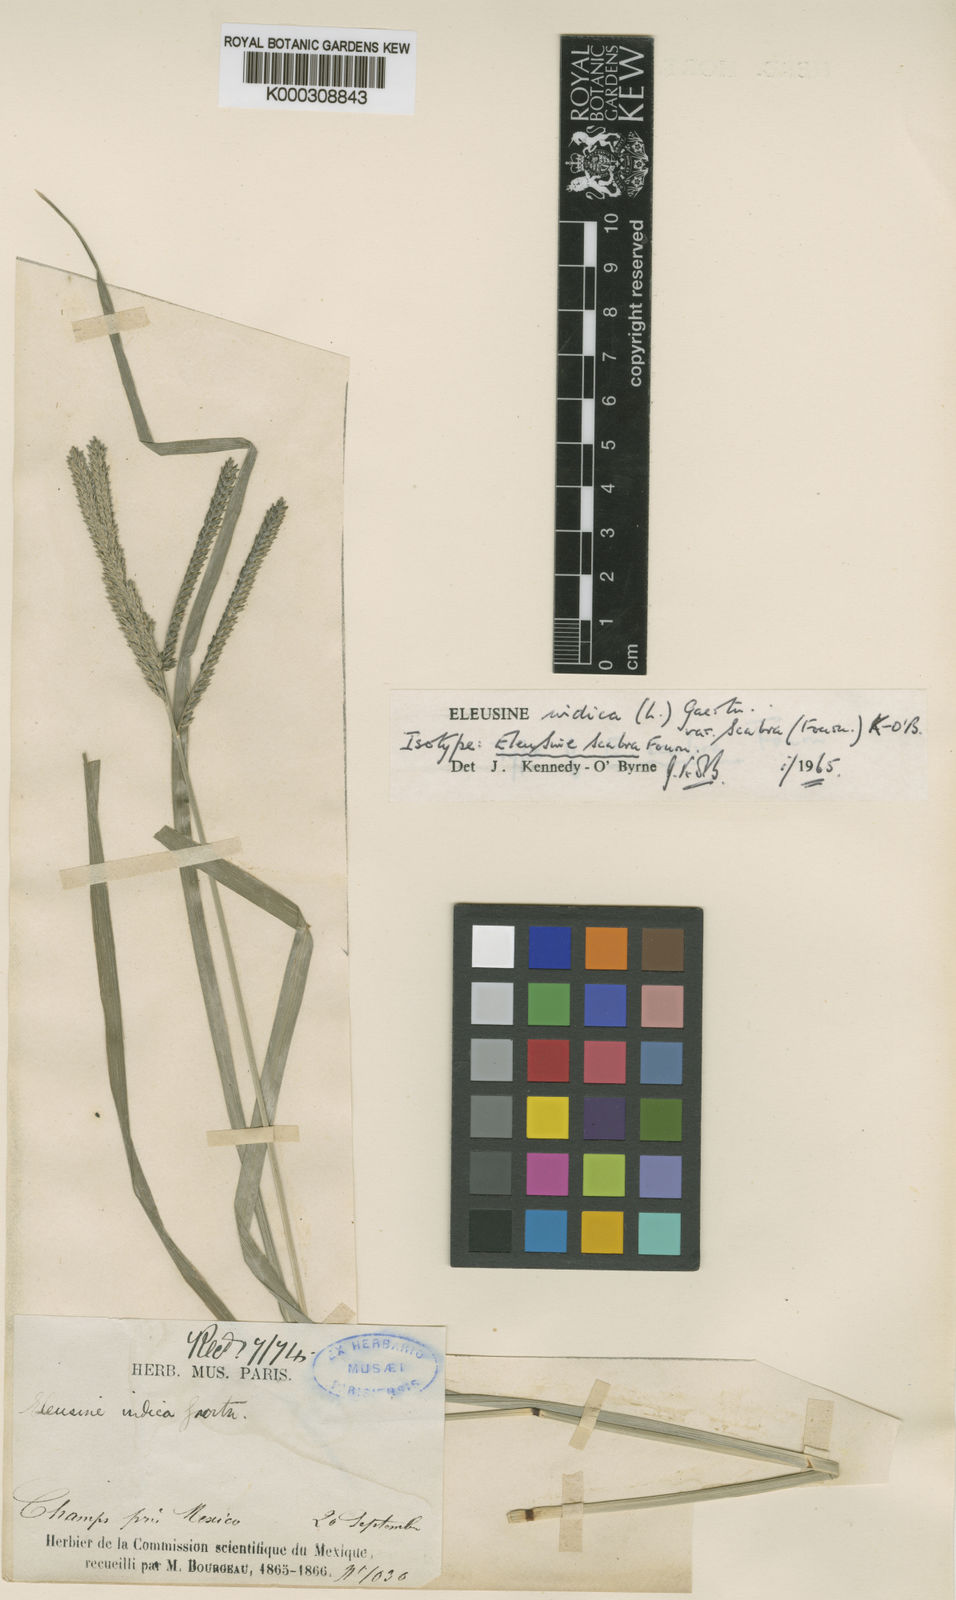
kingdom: Plantae
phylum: Tracheophyta
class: Liliopsida
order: Poales
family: Poaceae
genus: Eleusine
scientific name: Eleusine indica
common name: Yard-grass
